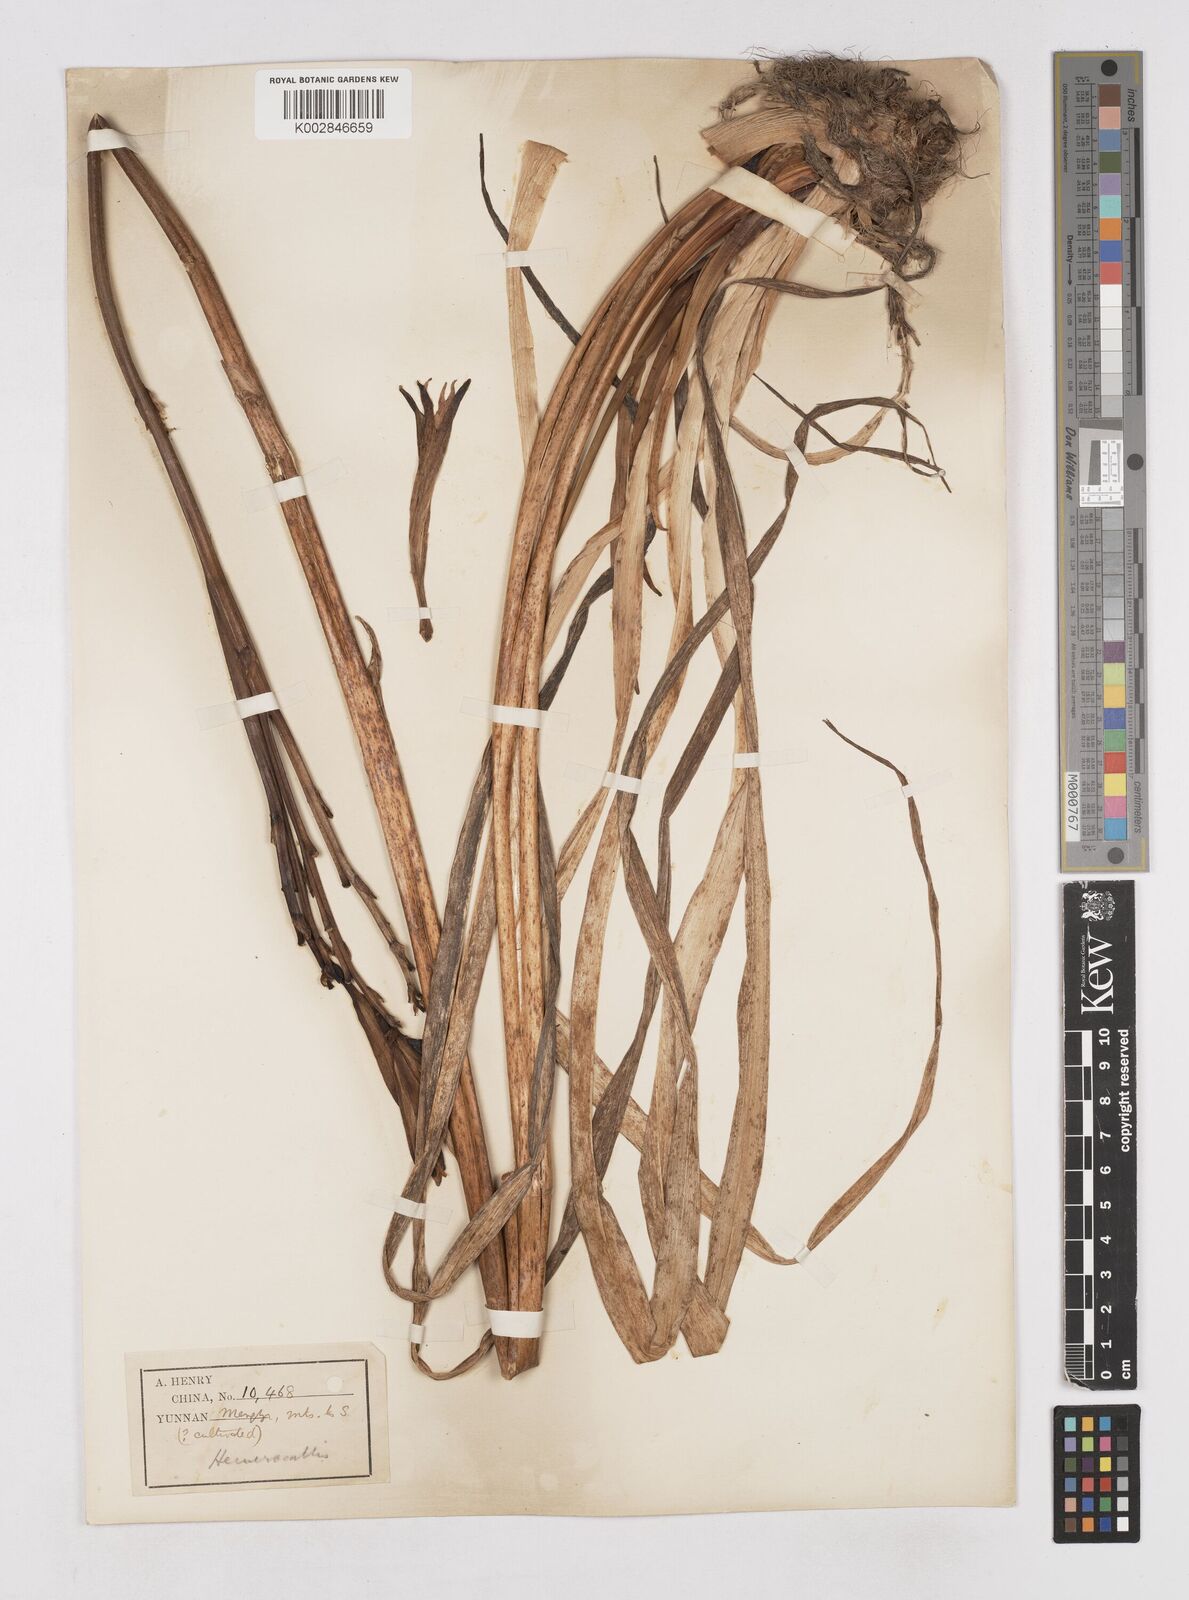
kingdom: Plantae
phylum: Tracheophyta
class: Liliopsida
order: Asparagales
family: Asphodelaceae
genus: Hemerocallis
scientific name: Hemerocallis fulva
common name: Orange day-lily
